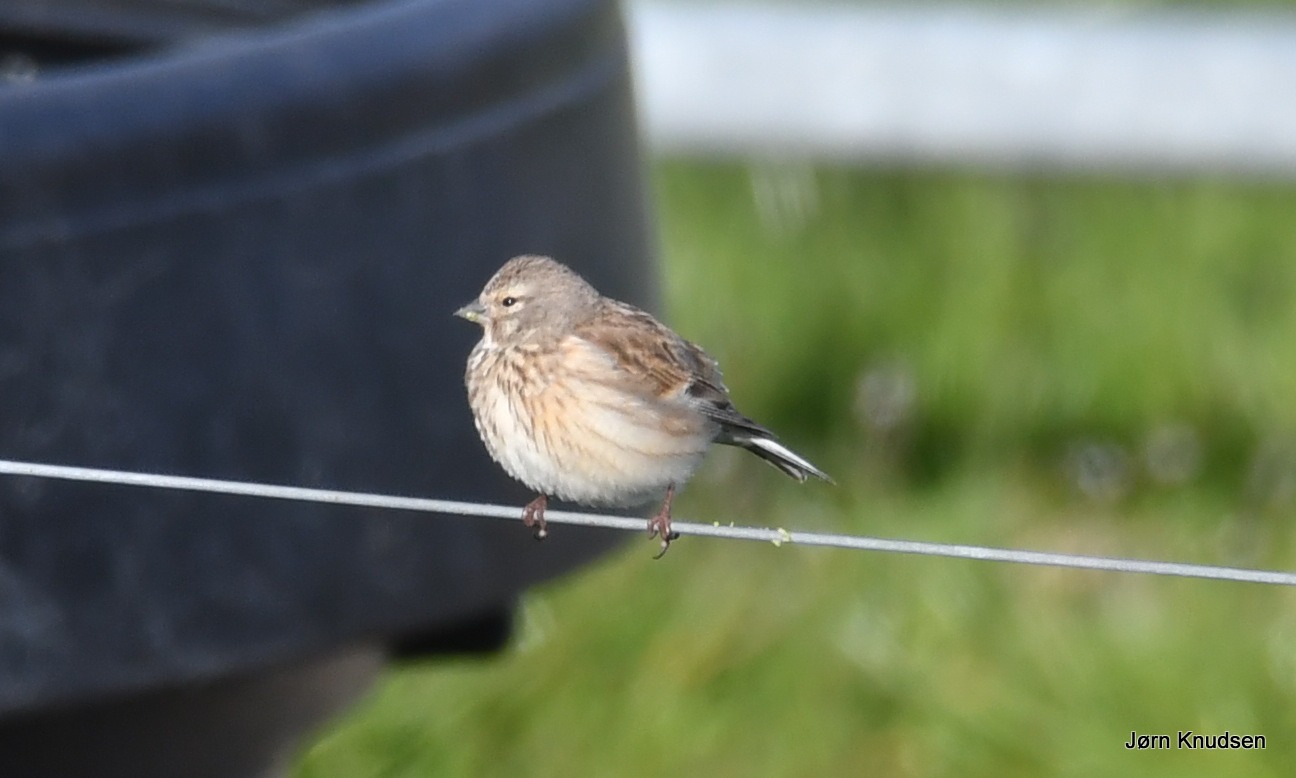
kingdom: Animalia
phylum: Chordata
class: Aves
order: Passeriformes
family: Fringillidae
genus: Linaria
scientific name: Linaria cannabina
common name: Tornirisk
